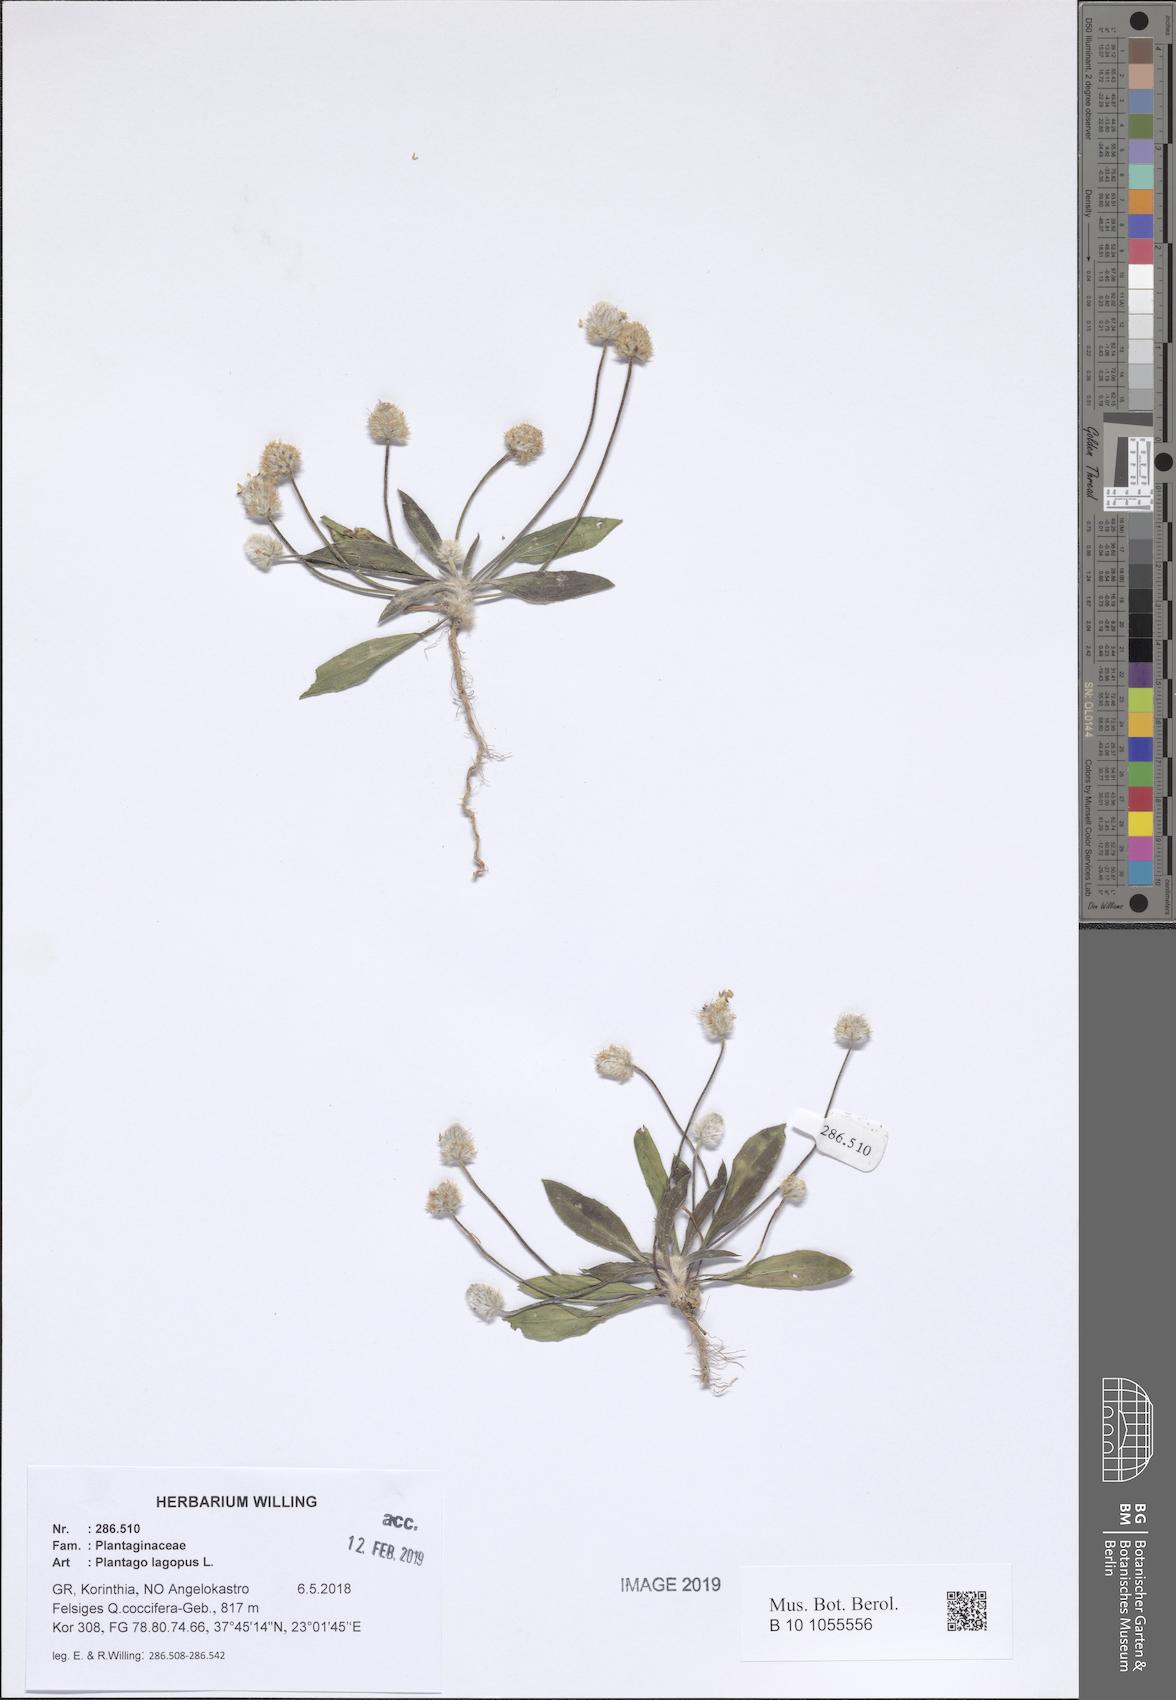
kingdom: Plantae
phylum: Tracheophyta
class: Magnoliopsida
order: Lamiales
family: Plantaginaceae
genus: Plantago
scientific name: Plantago lagopus
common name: Hare-foot plantain
